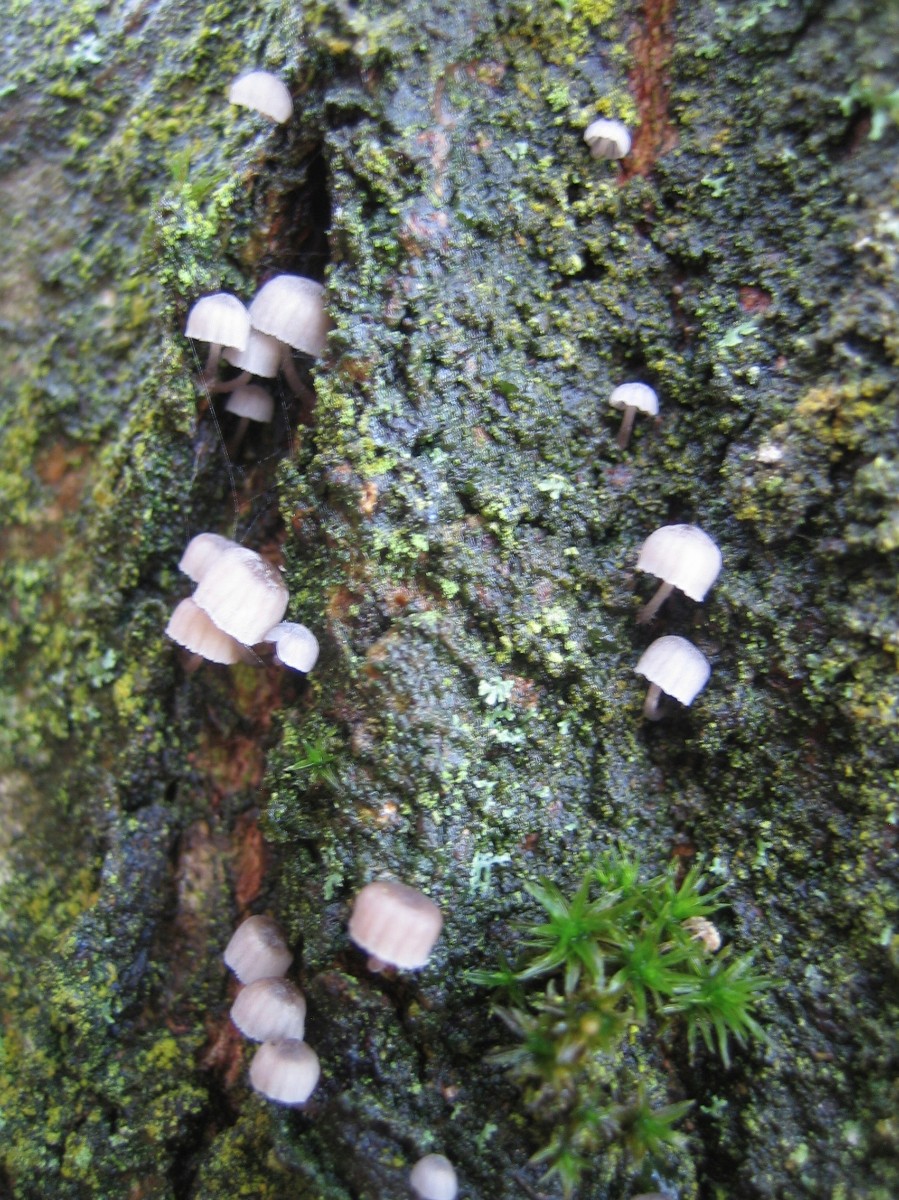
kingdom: Fungi
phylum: Basidiomycota
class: Agaricomycetes
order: Agaricales
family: Mycenaceae
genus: Mycena
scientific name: Mycena
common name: huesvamp
